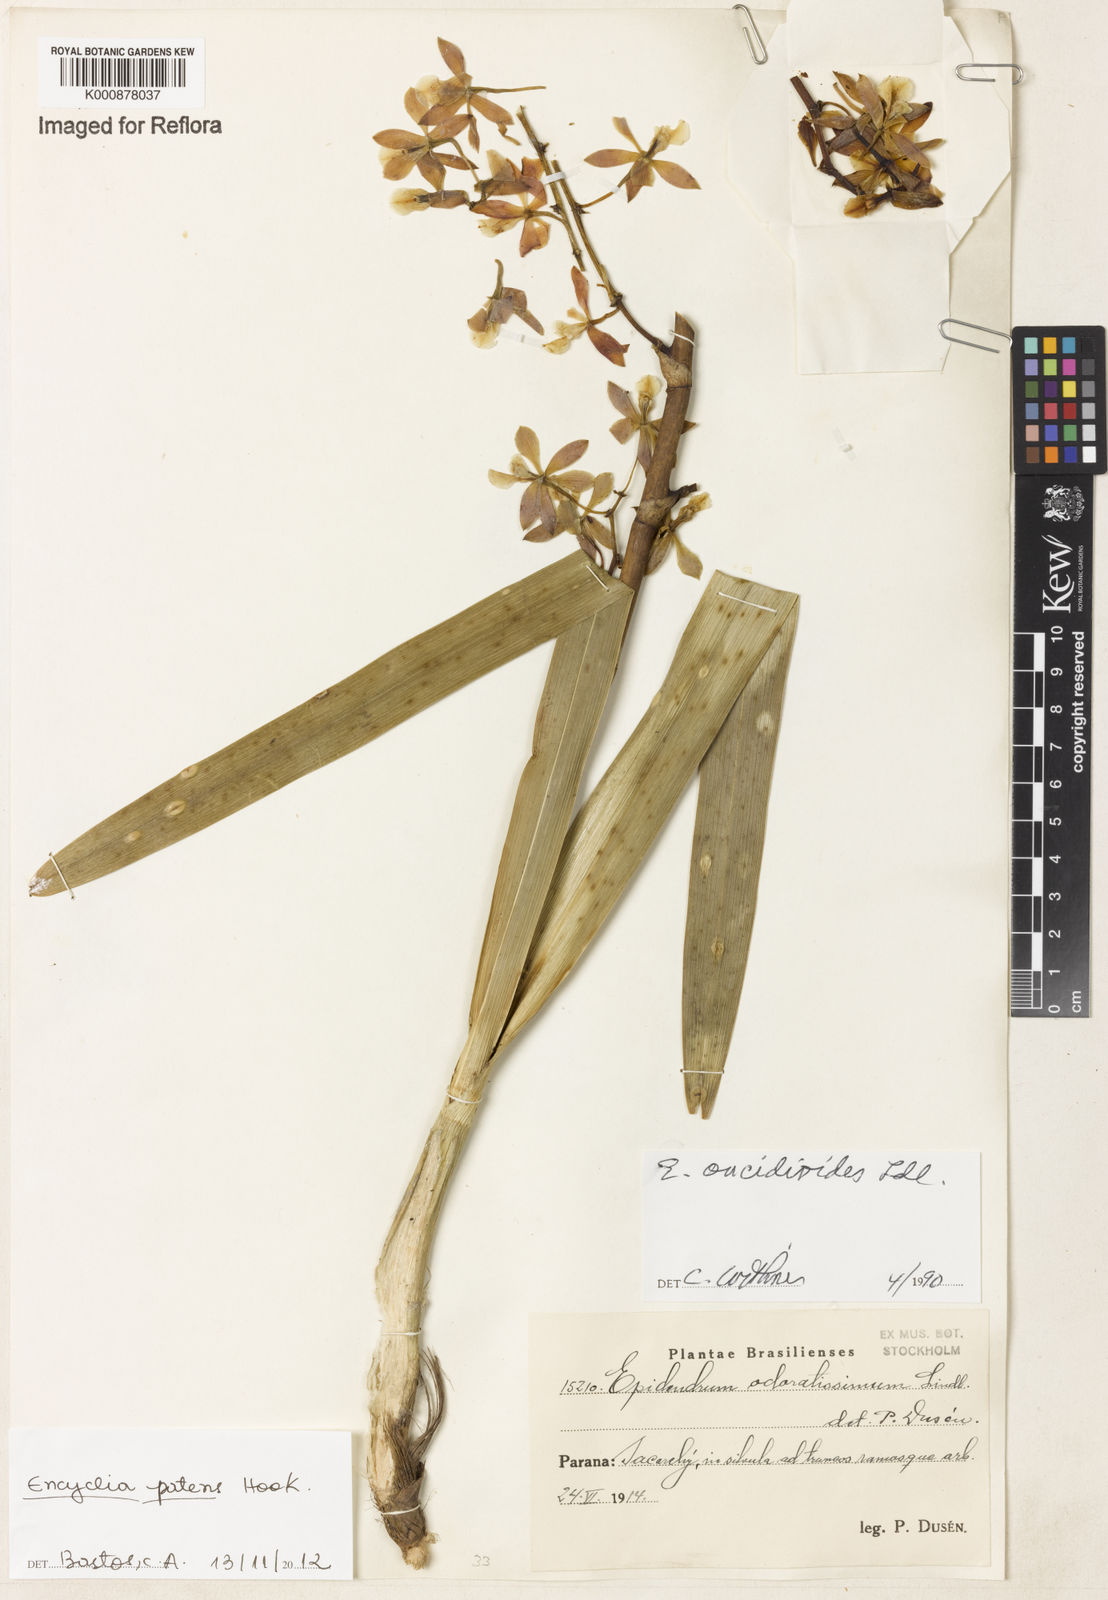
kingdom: Plantae
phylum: Tracheophyta
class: Liliopsida
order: Asparagales
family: Orchidaceae
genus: Encyclia
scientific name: Encyclia patens
